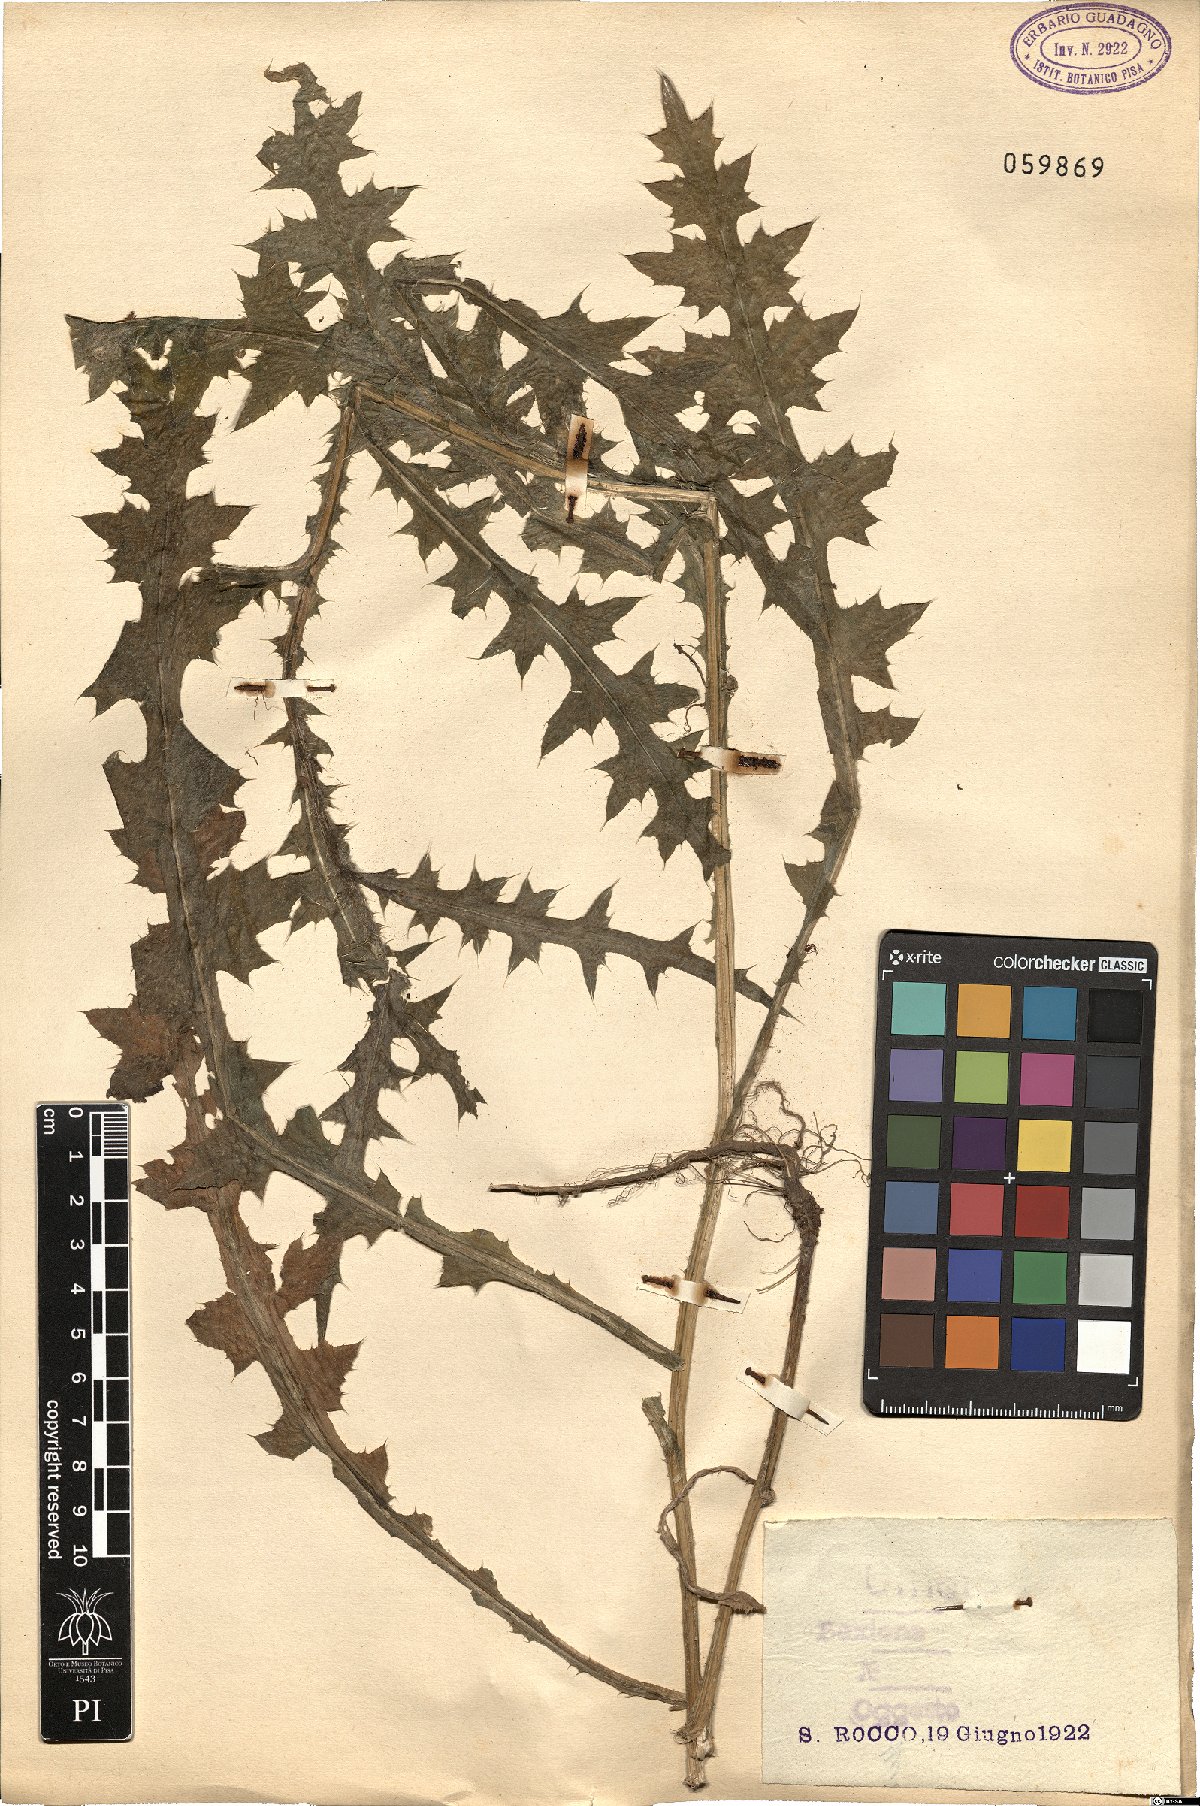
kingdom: Plantae
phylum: Tracheophyta
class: Magnoliopsida
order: Asterales
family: Asteraceae
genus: Cirsium
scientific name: Cirsium
